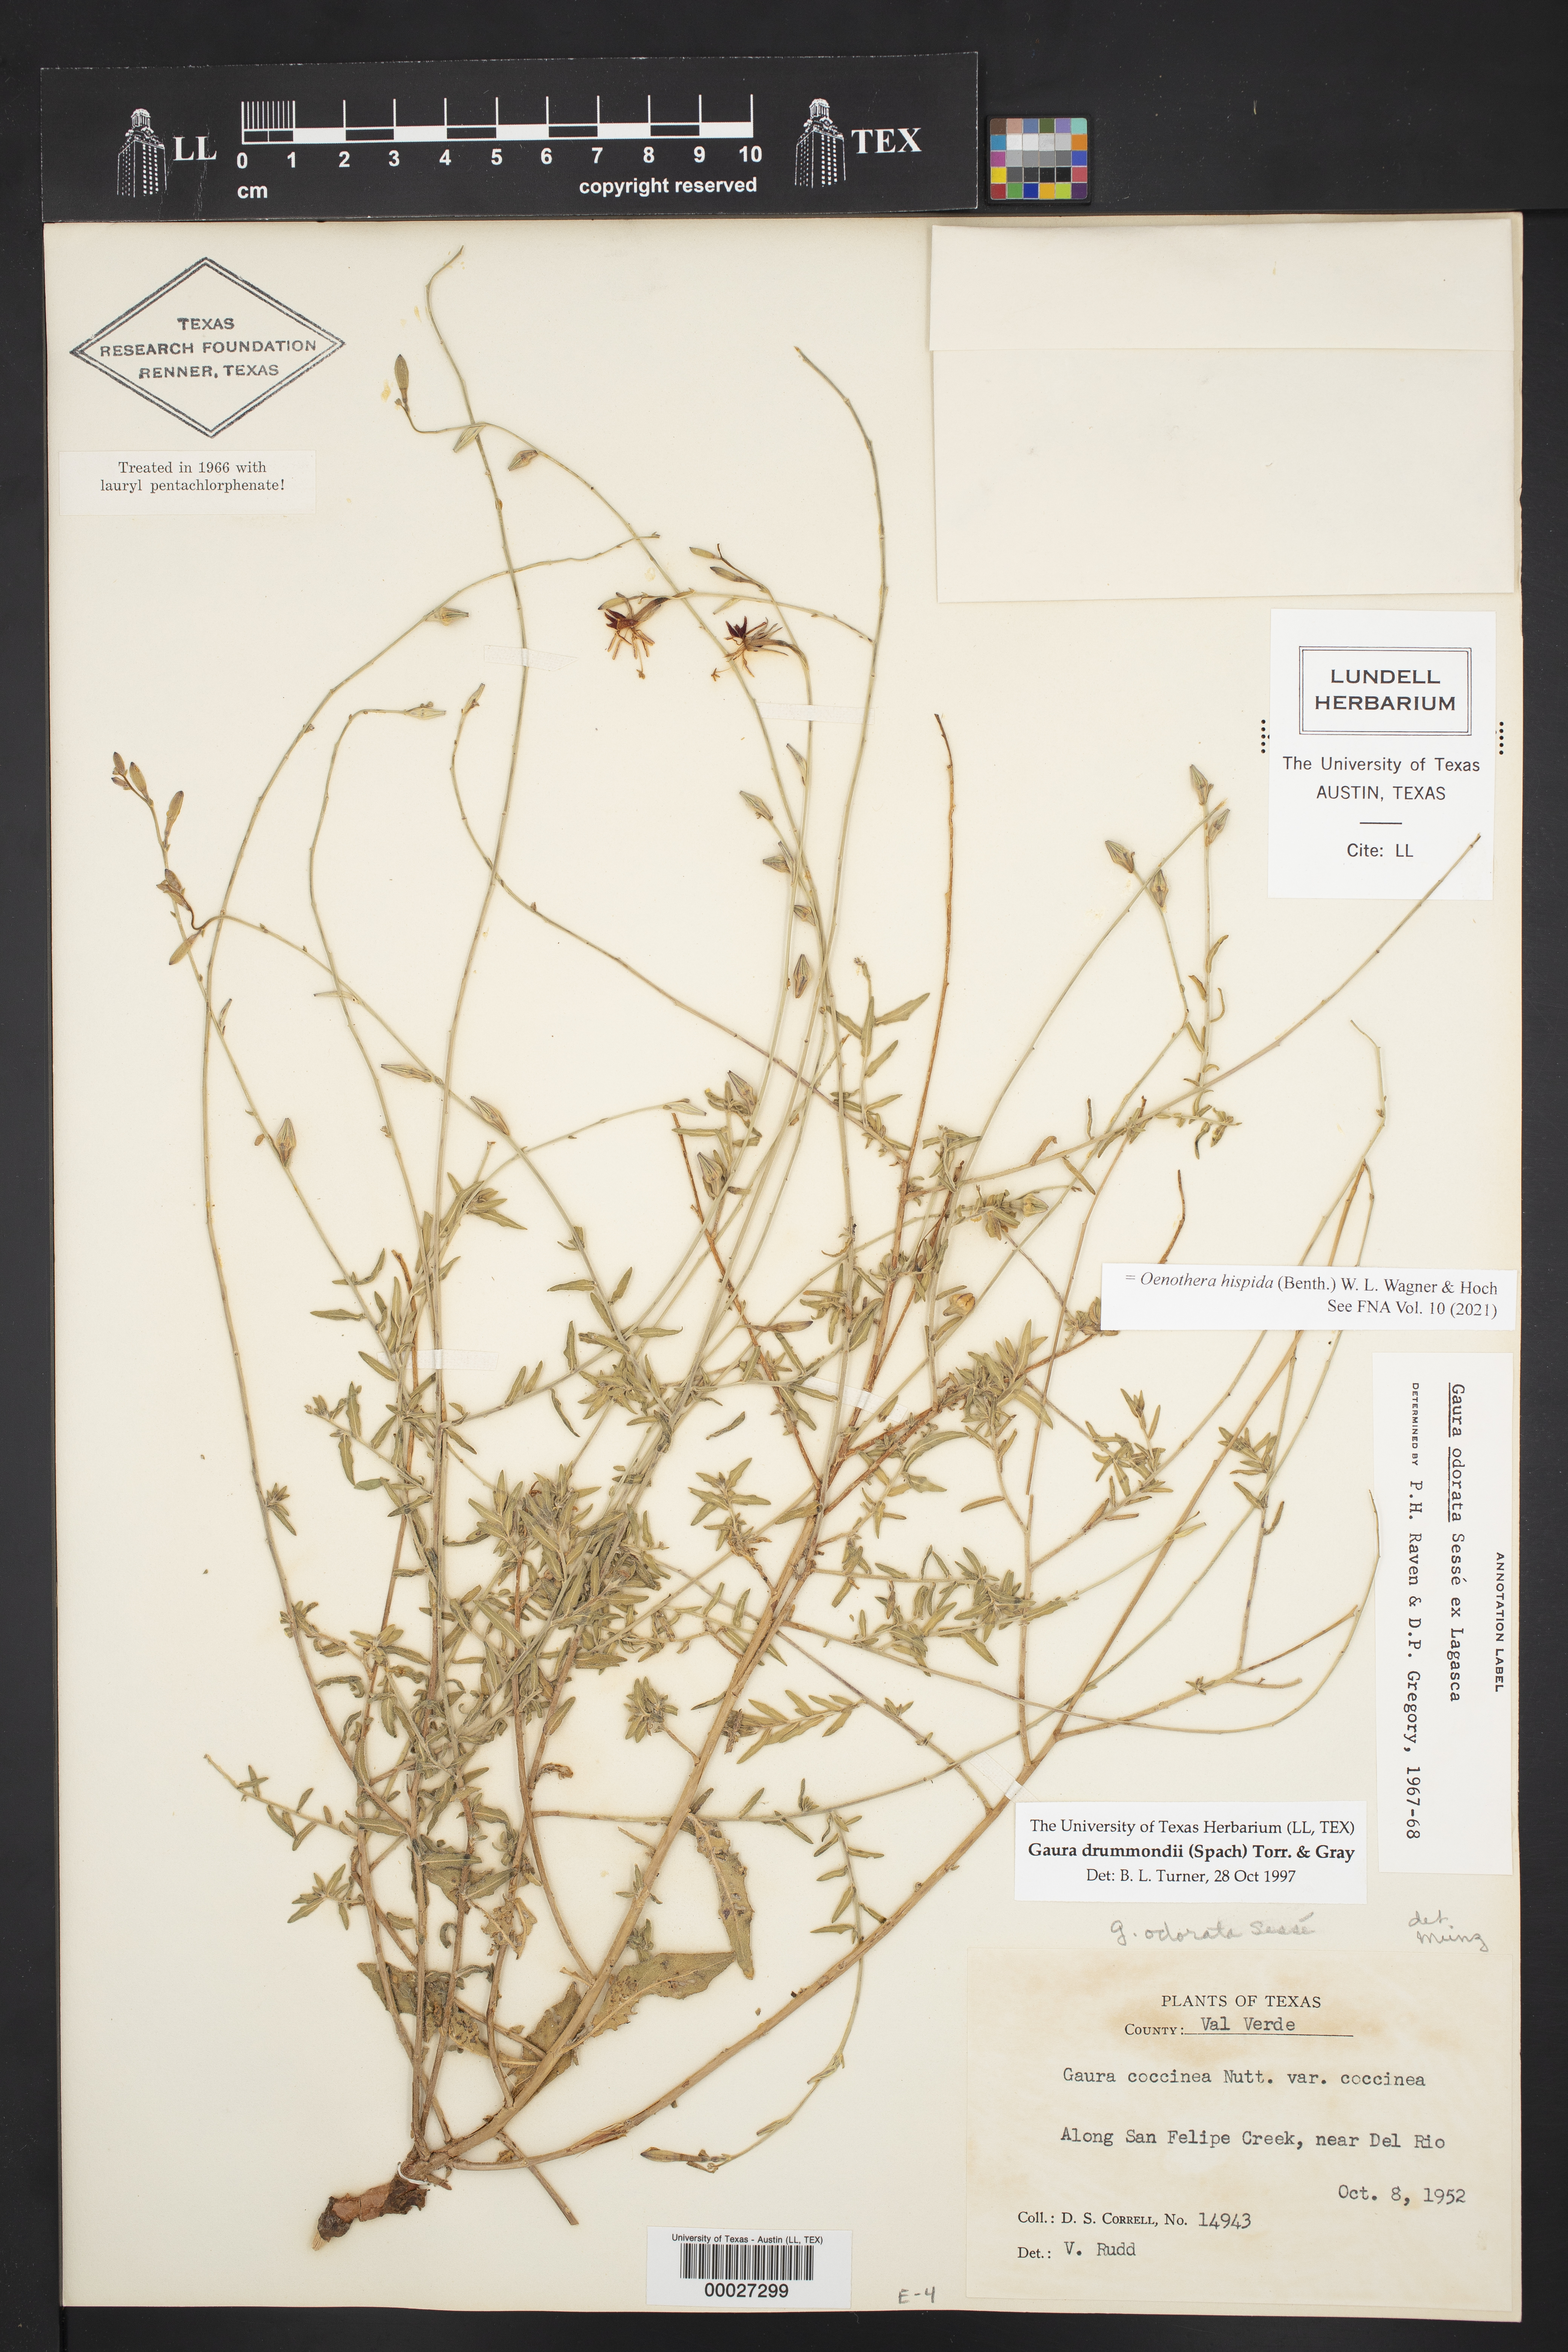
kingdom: Plantae
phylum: Tracheophyta
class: Magnoliopsida
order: Myrtales
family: Onagraceae
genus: Oenothera
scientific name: Oenothera hispida
